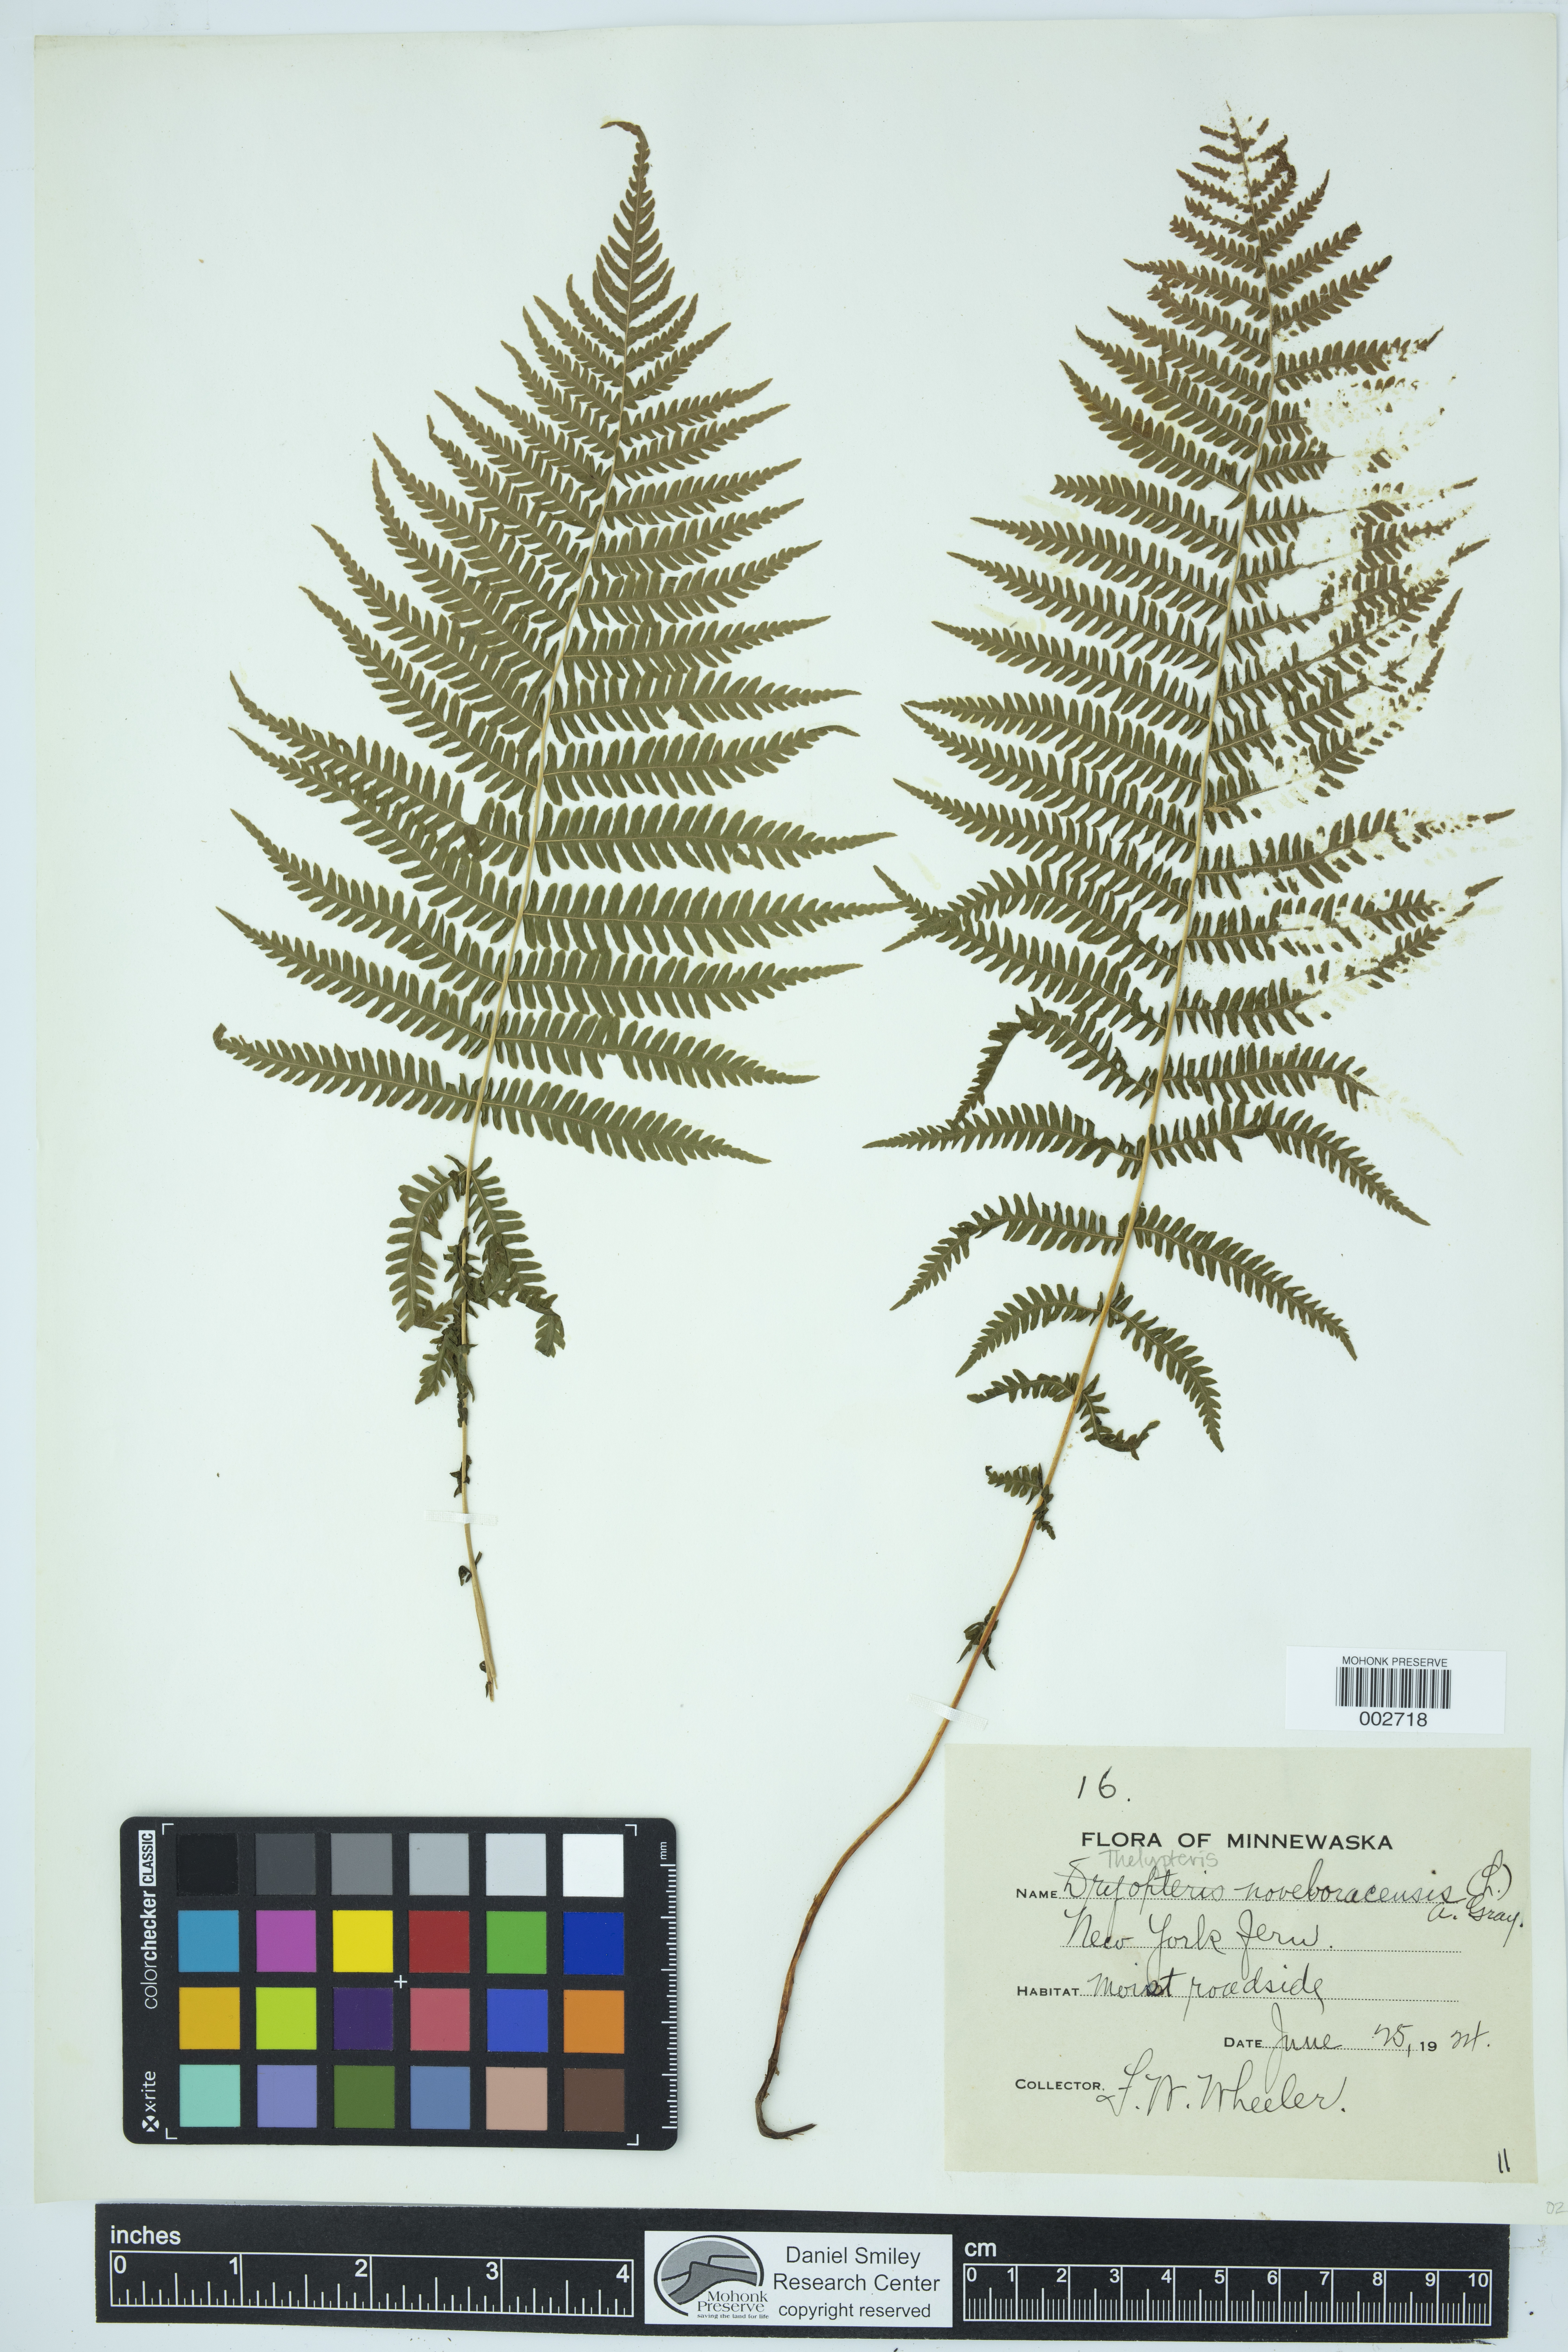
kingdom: Plantae
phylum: Tracheophyta
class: Polypodiopsida
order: Polypodiales
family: Thelypteridaceae
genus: Amauropelta
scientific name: Amauropelta noveboracensis
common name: New york fern
